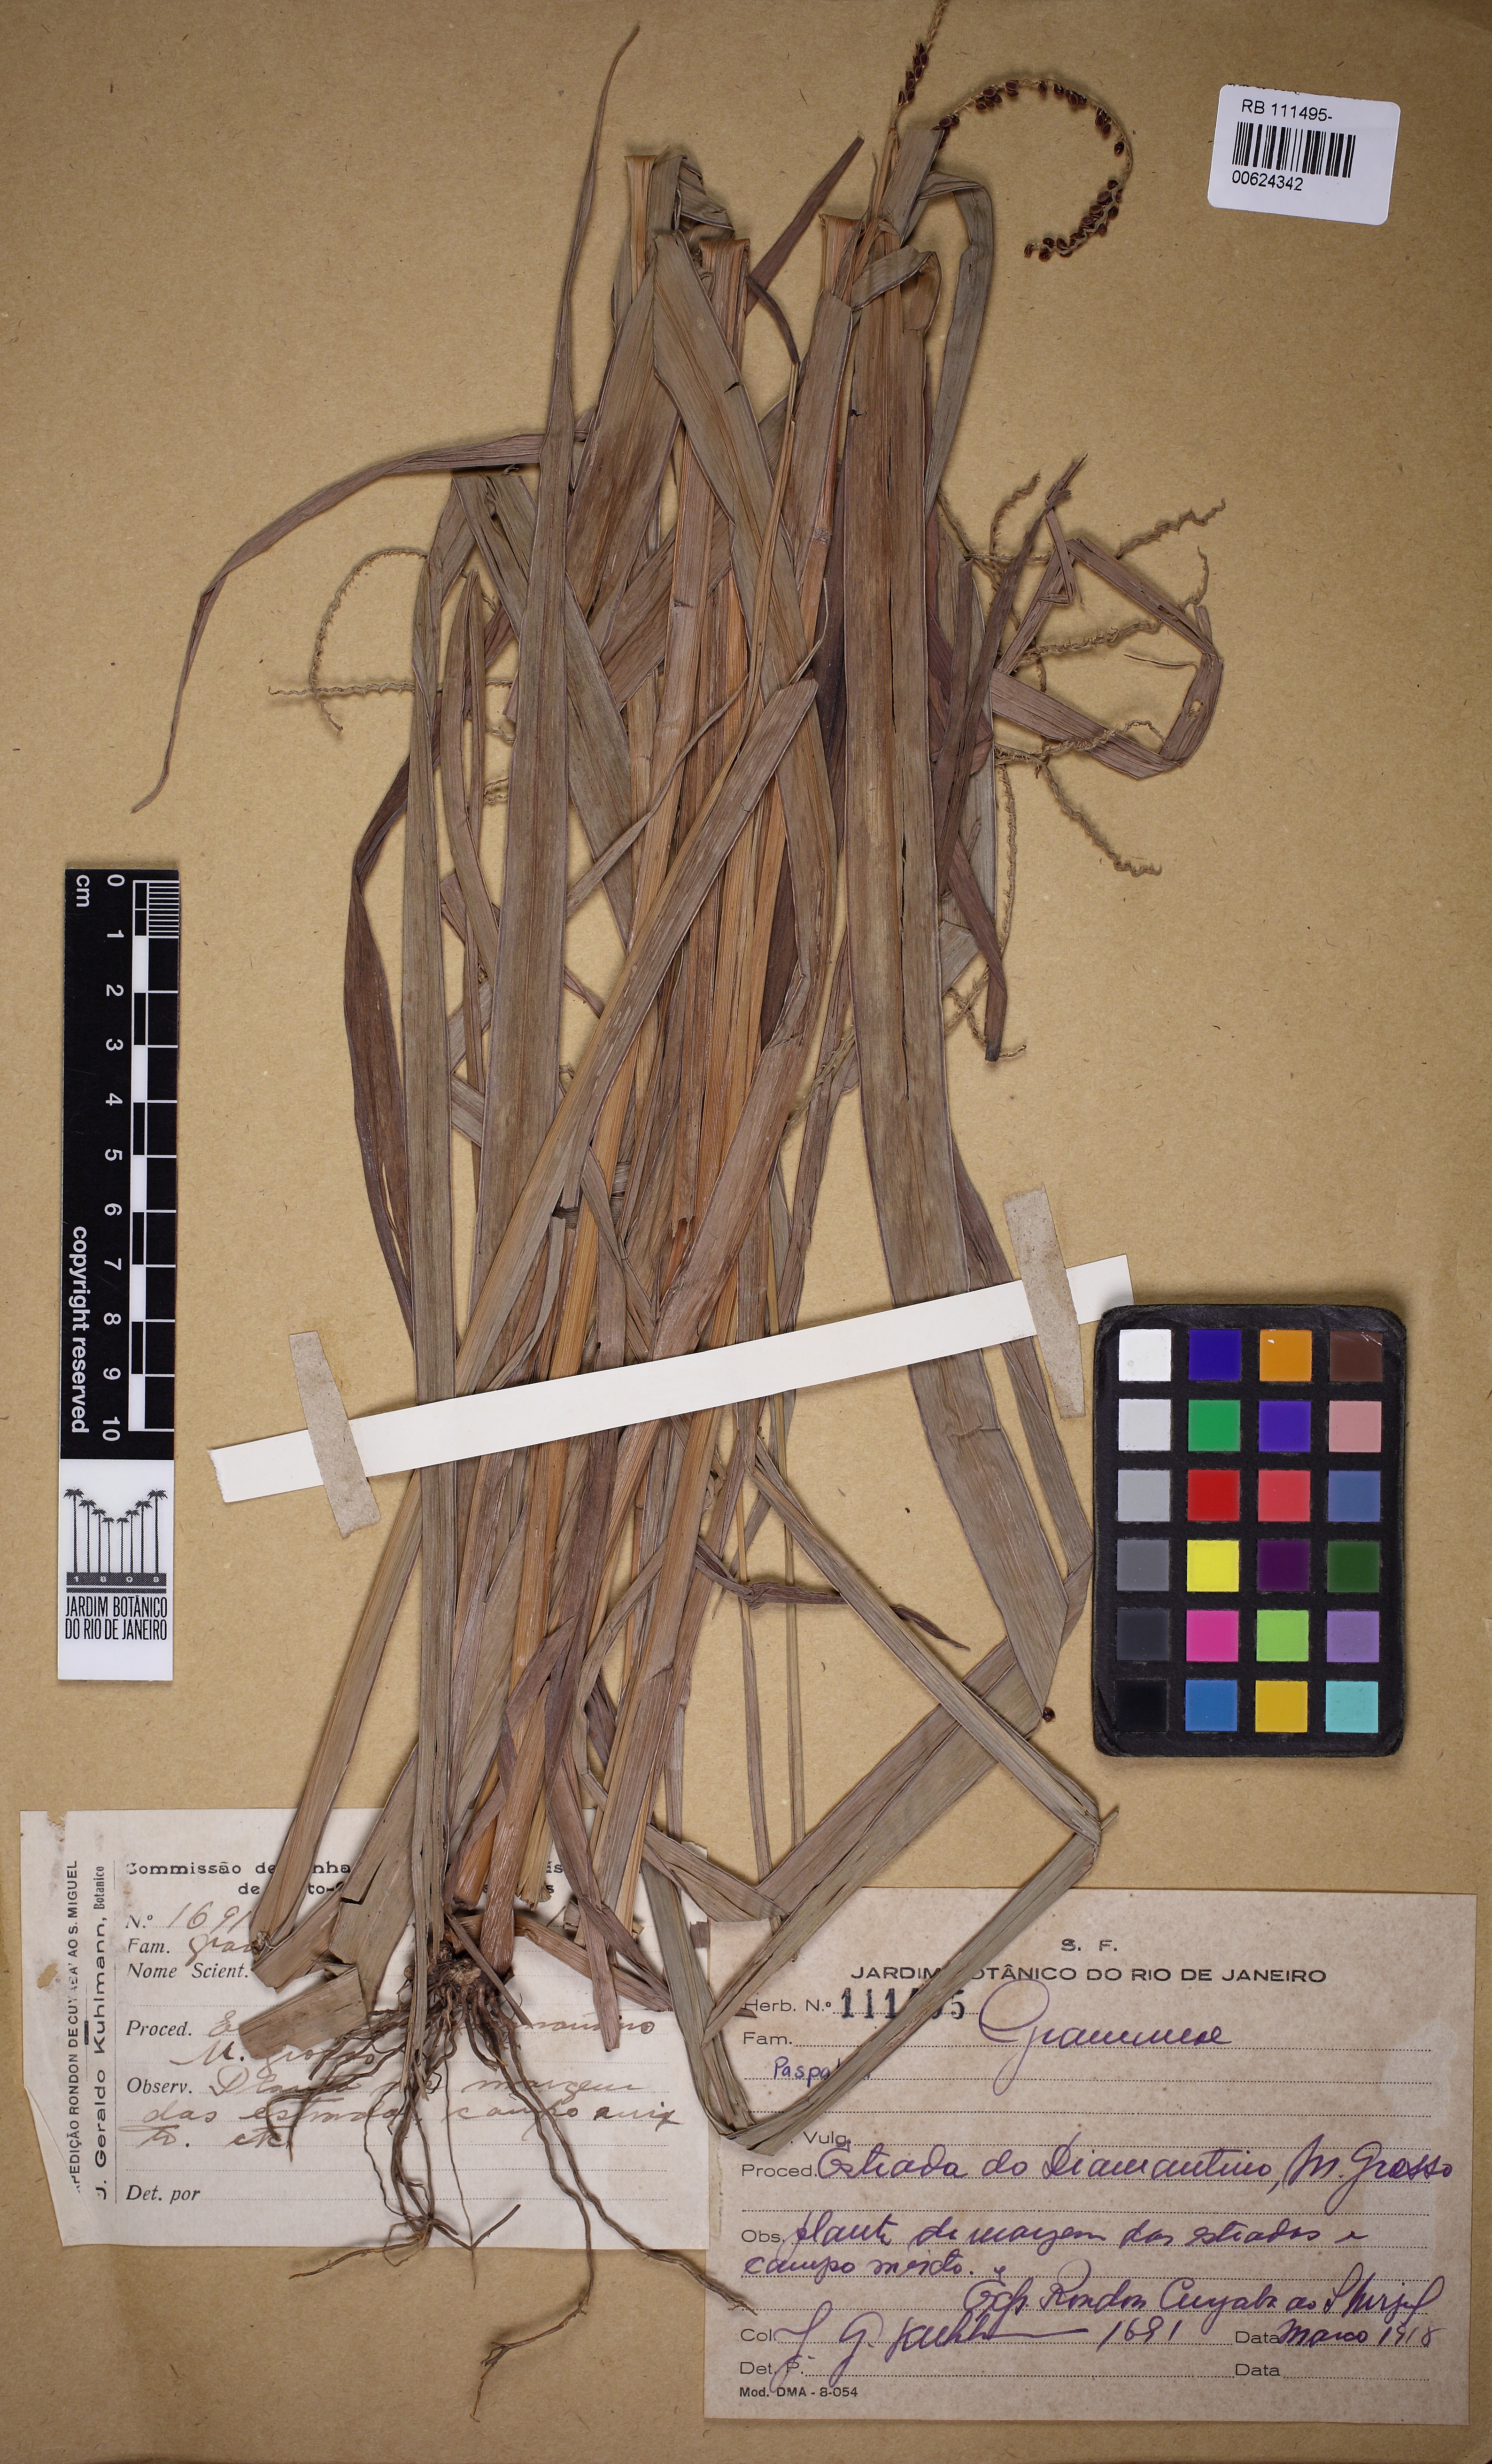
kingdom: Plantae
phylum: Tracheophyta
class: Liliopsida
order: Poales
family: Poaceae
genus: Paspalum
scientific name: Paspalum
